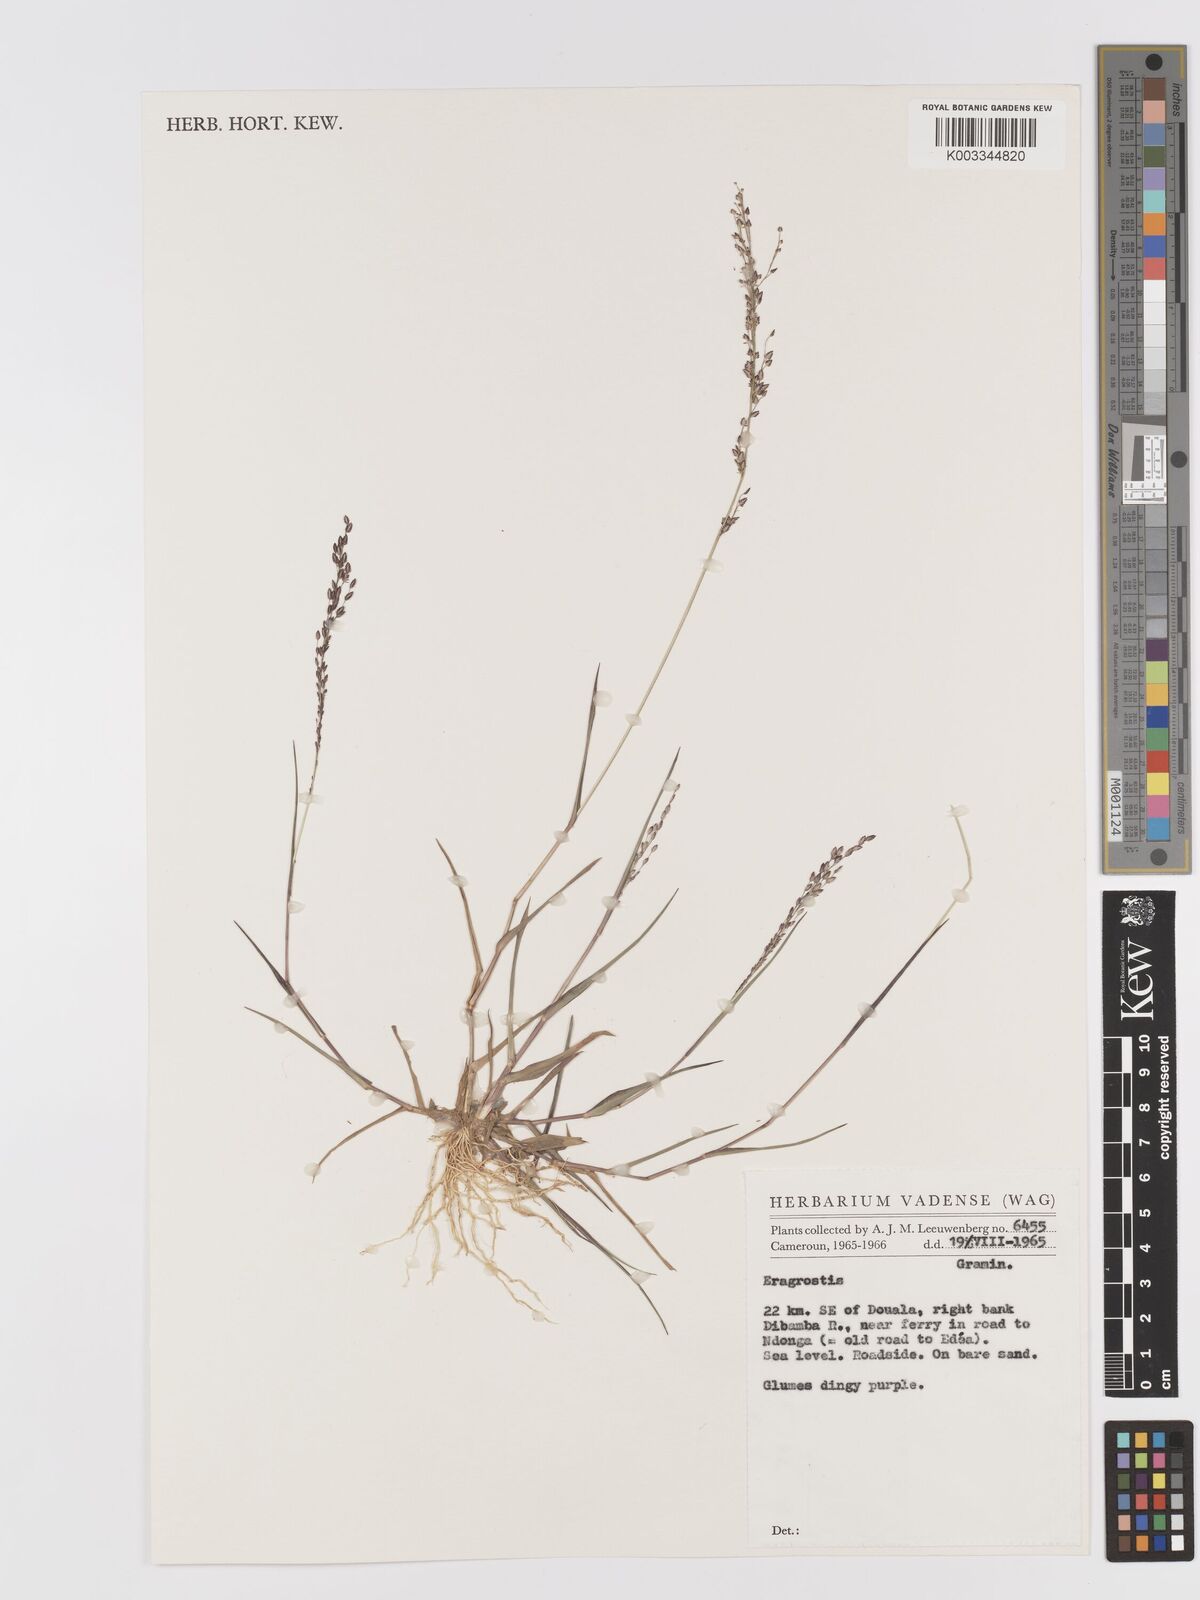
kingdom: Plantae
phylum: Tracheophyta
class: Liliopsida
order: Poales
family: Poaceae
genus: Eragrostis
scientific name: Eragrostis unioloides
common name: Chinese lovegrass
